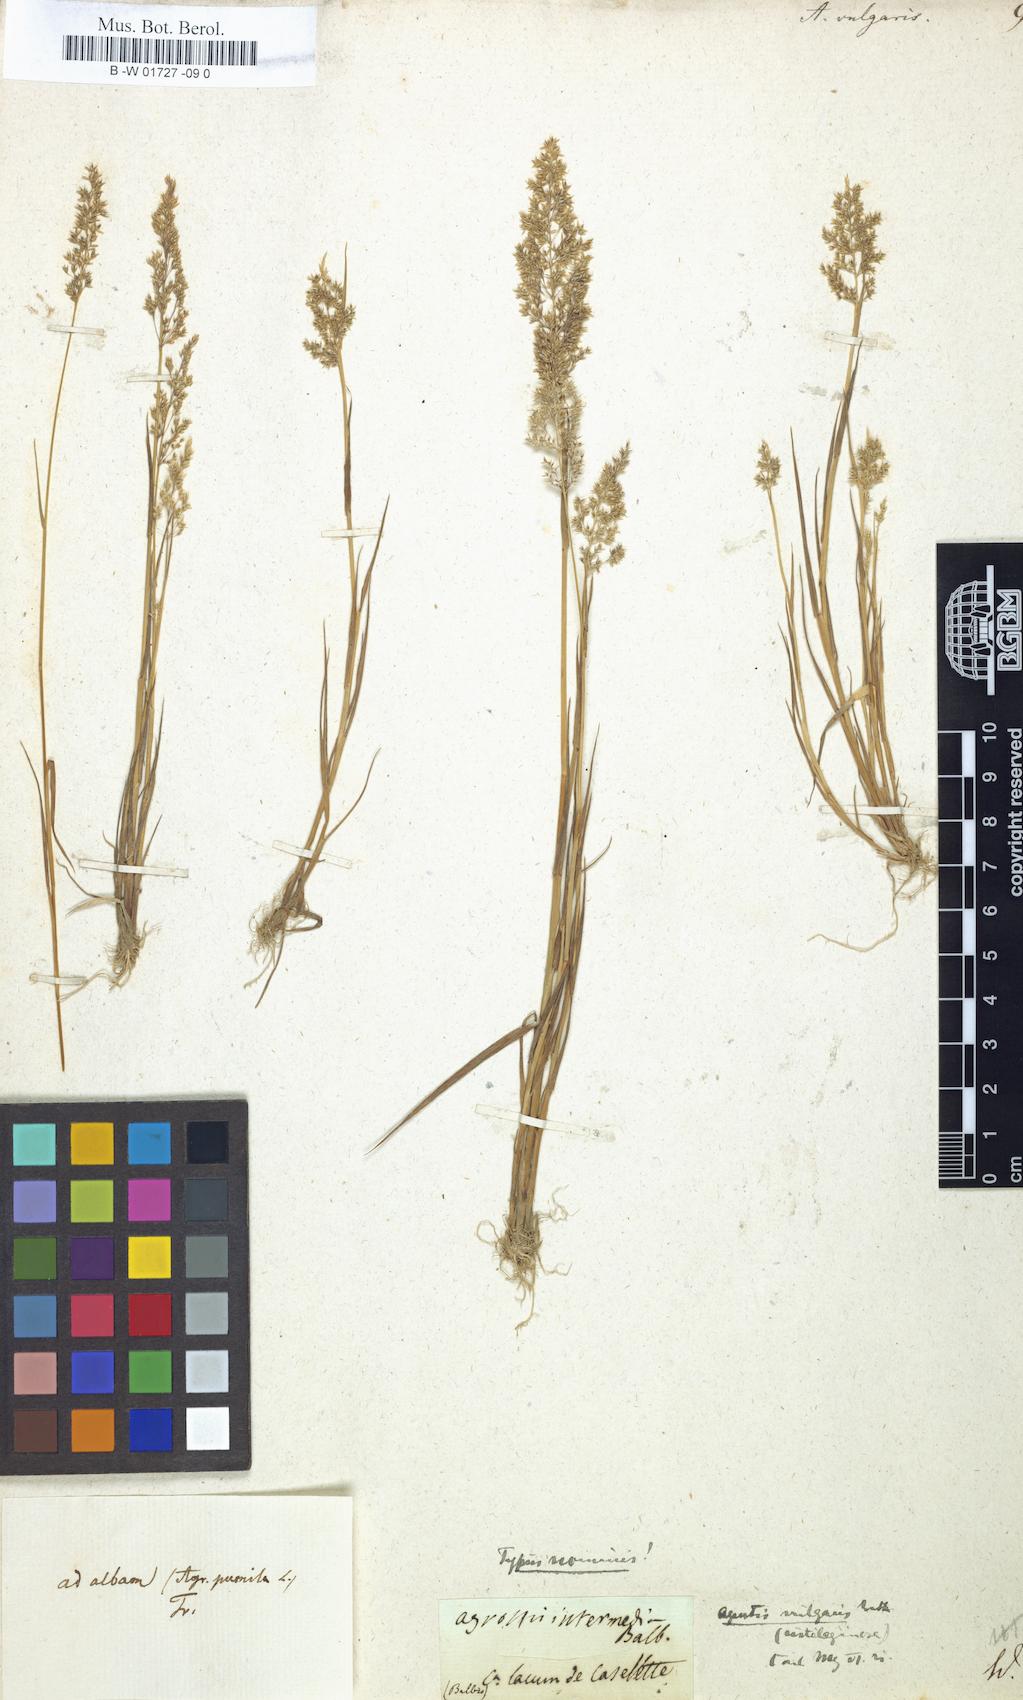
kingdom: Plantae
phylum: Tracheophyta
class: Liliopsida
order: Poales
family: Poaceae
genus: Agrostis
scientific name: Agrostis capillaris
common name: Colonial bentgrass
